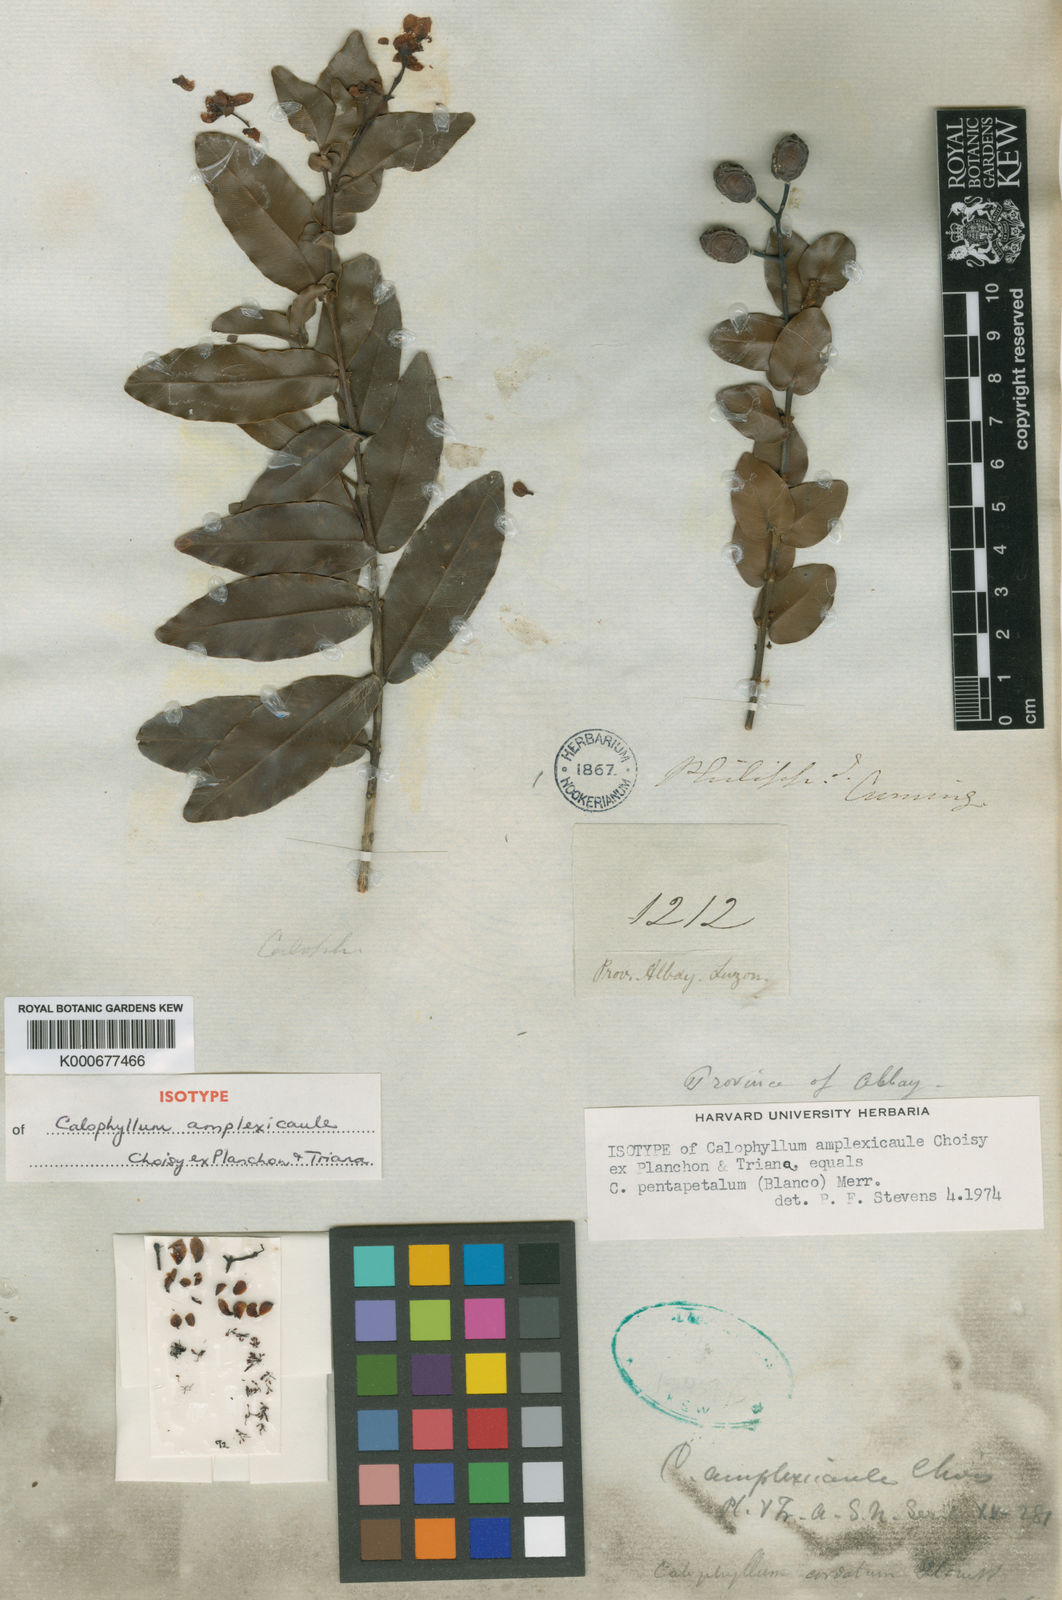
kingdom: Plantae
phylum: Tracheophyta
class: Magnoliopsida
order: Malpighiales
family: Calophyllaceae
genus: Calophyllum
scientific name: Calophyllum pentapetalum
